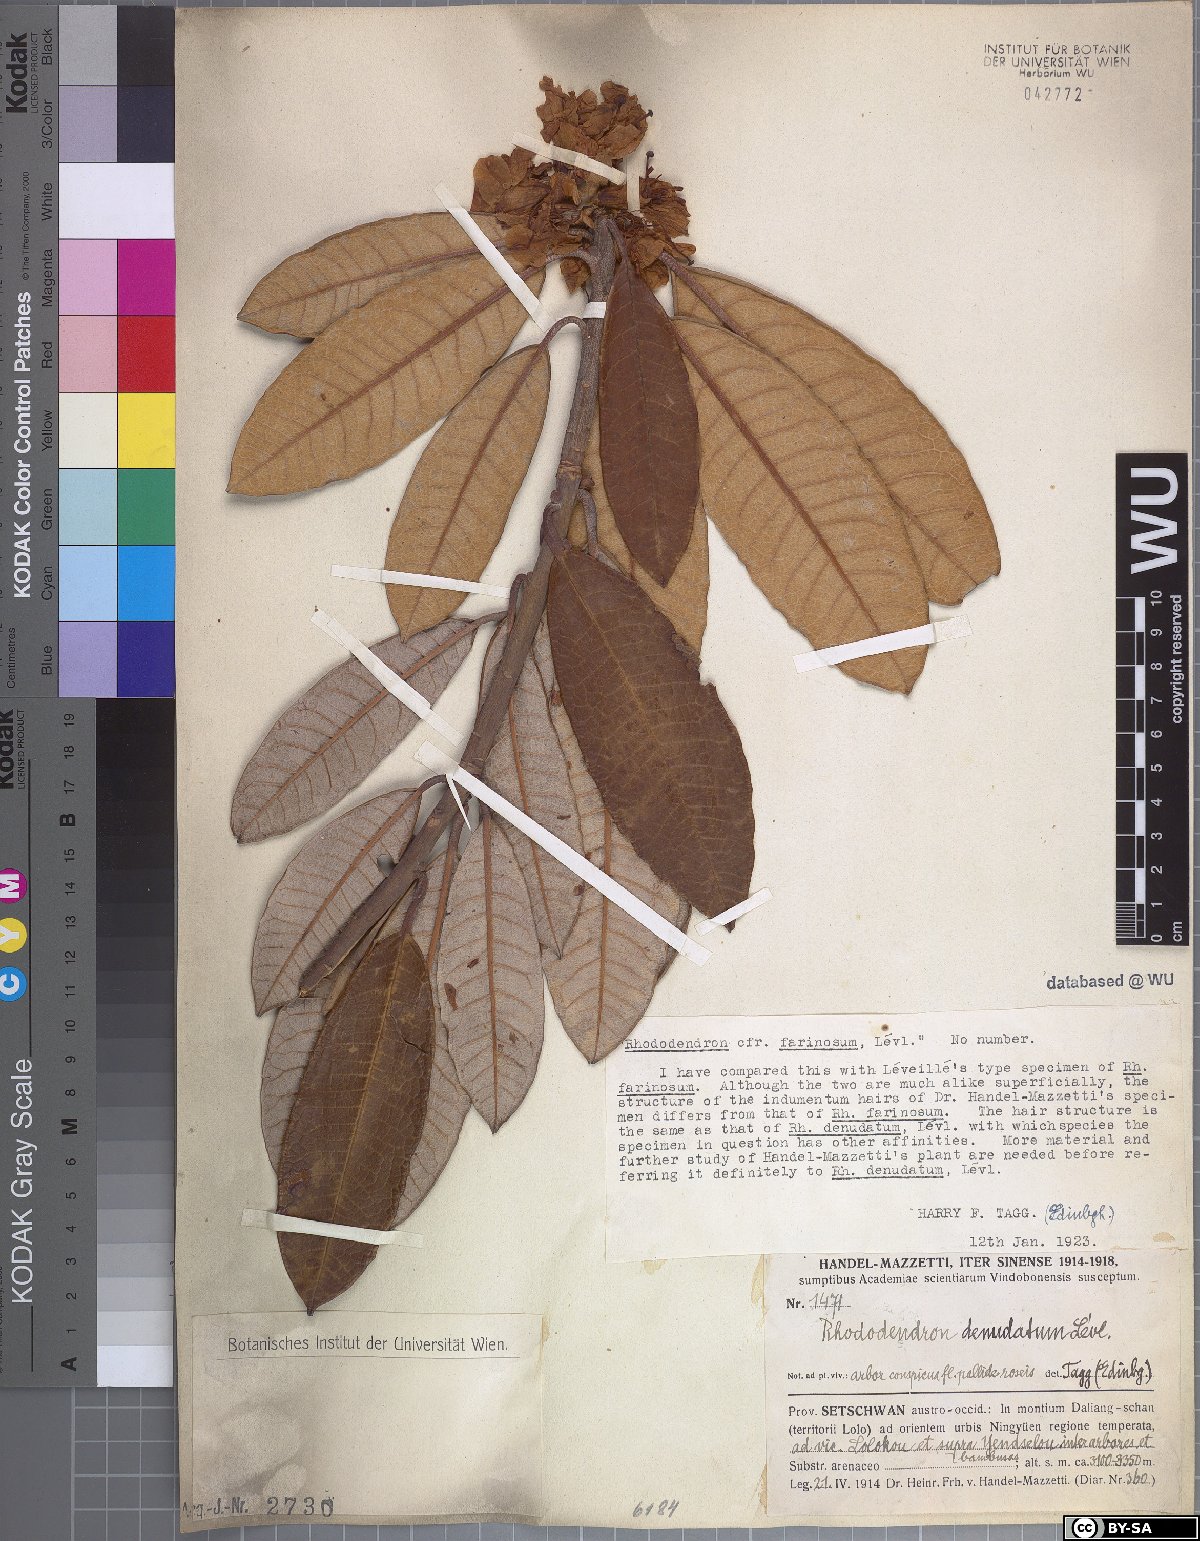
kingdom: Plantae
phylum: Tracheophyta
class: Magnoliopsida
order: Ericales
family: Ericaceae
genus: Rhododendron
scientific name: Rhododendron farinosum
